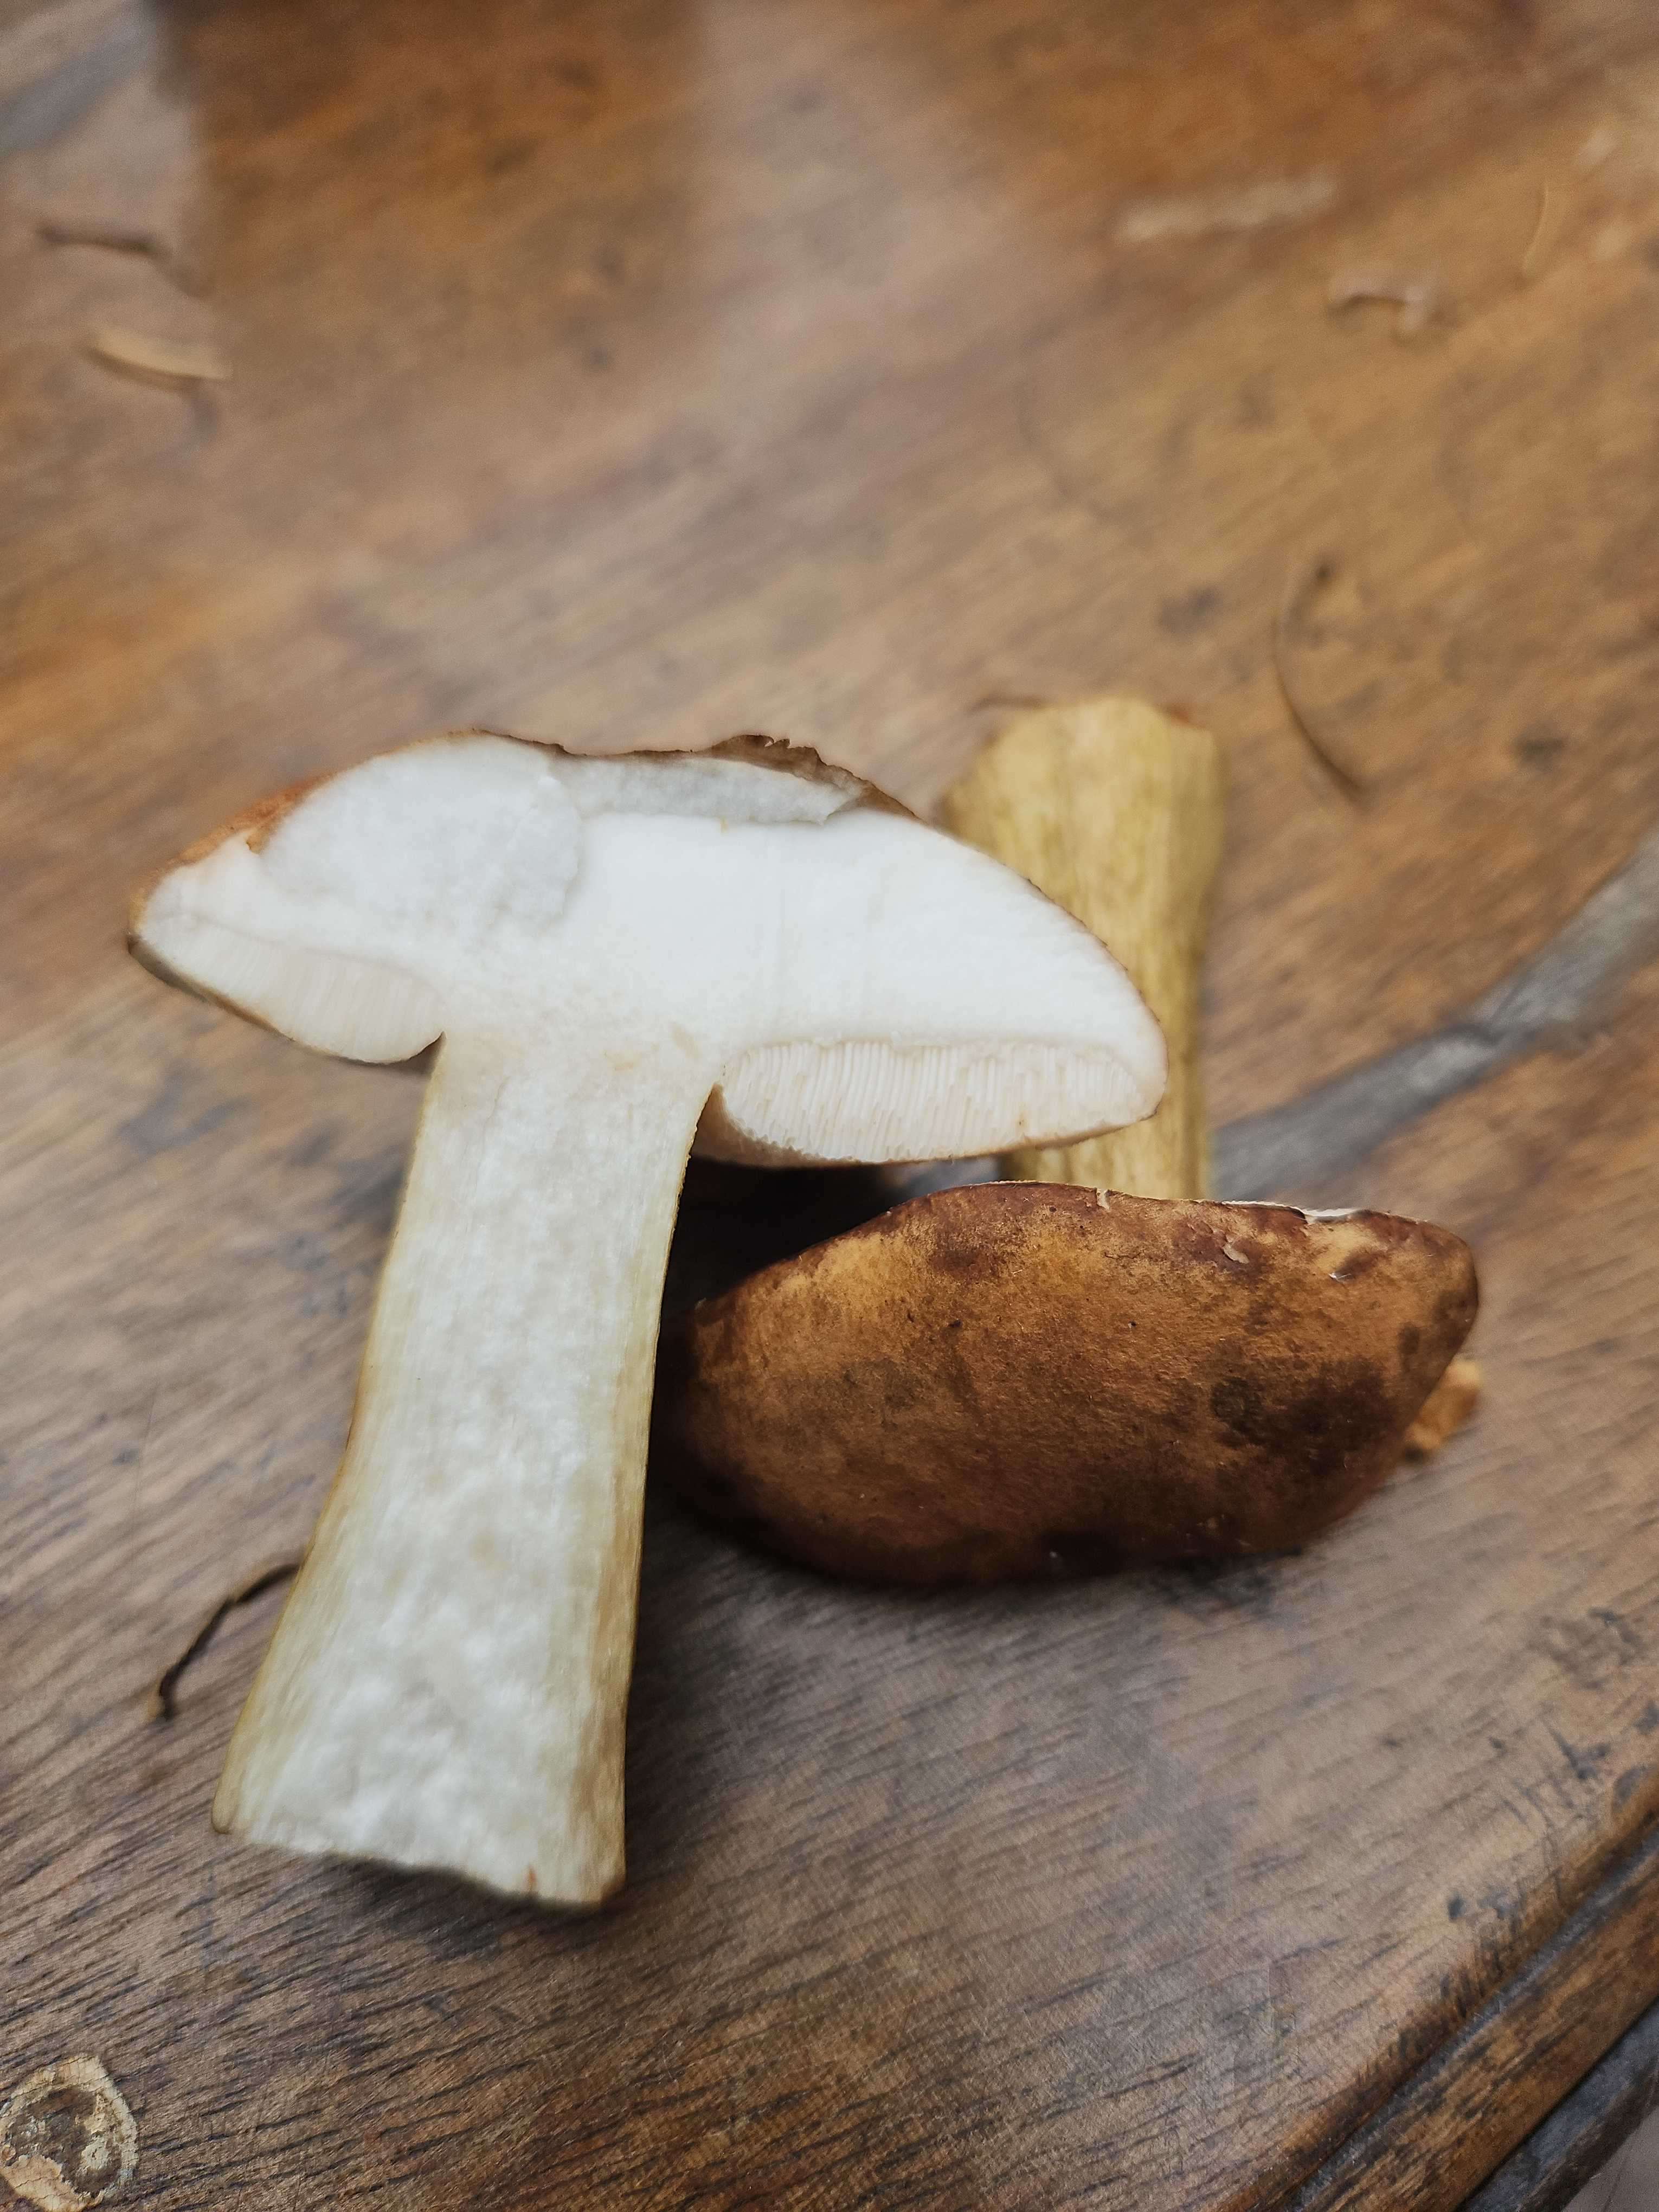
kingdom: Fungi
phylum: Basidiomycota
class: Agaricomycetes
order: Boletales
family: Boletaceae
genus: Tylopilus
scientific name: Tylopilus felleus
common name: galderørhat
